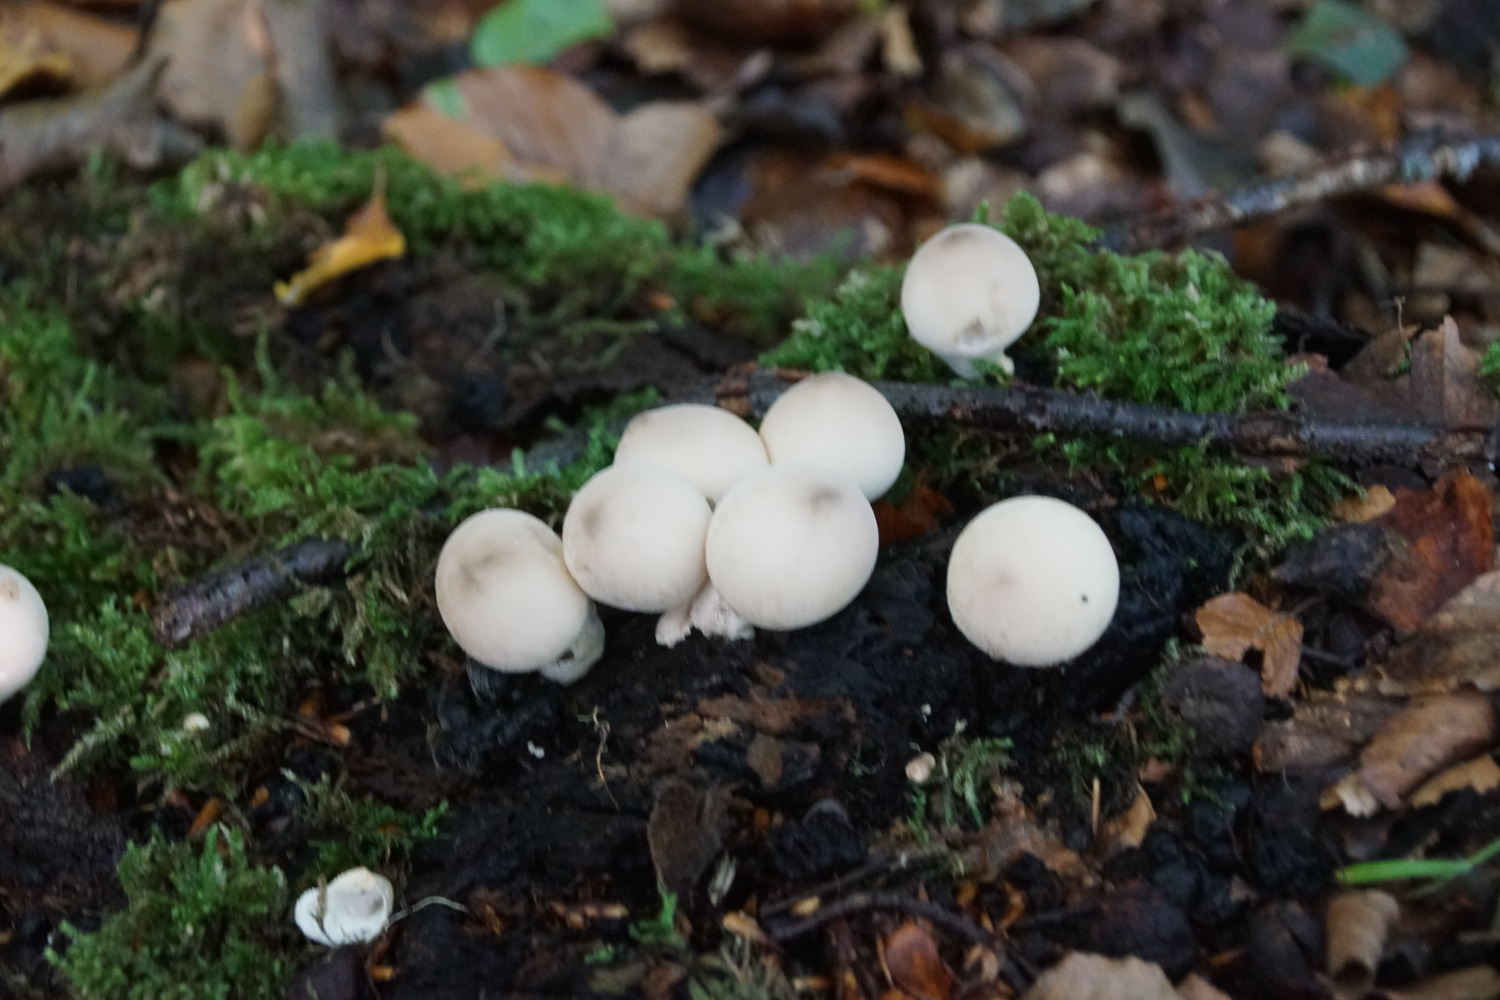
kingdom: Fungi
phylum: Basidiomycota
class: Agaricomycetes
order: Agaricales
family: Lycoperdaceae
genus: Apioperdon
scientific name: Apioperdon pyriforme
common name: pære-støvbold
